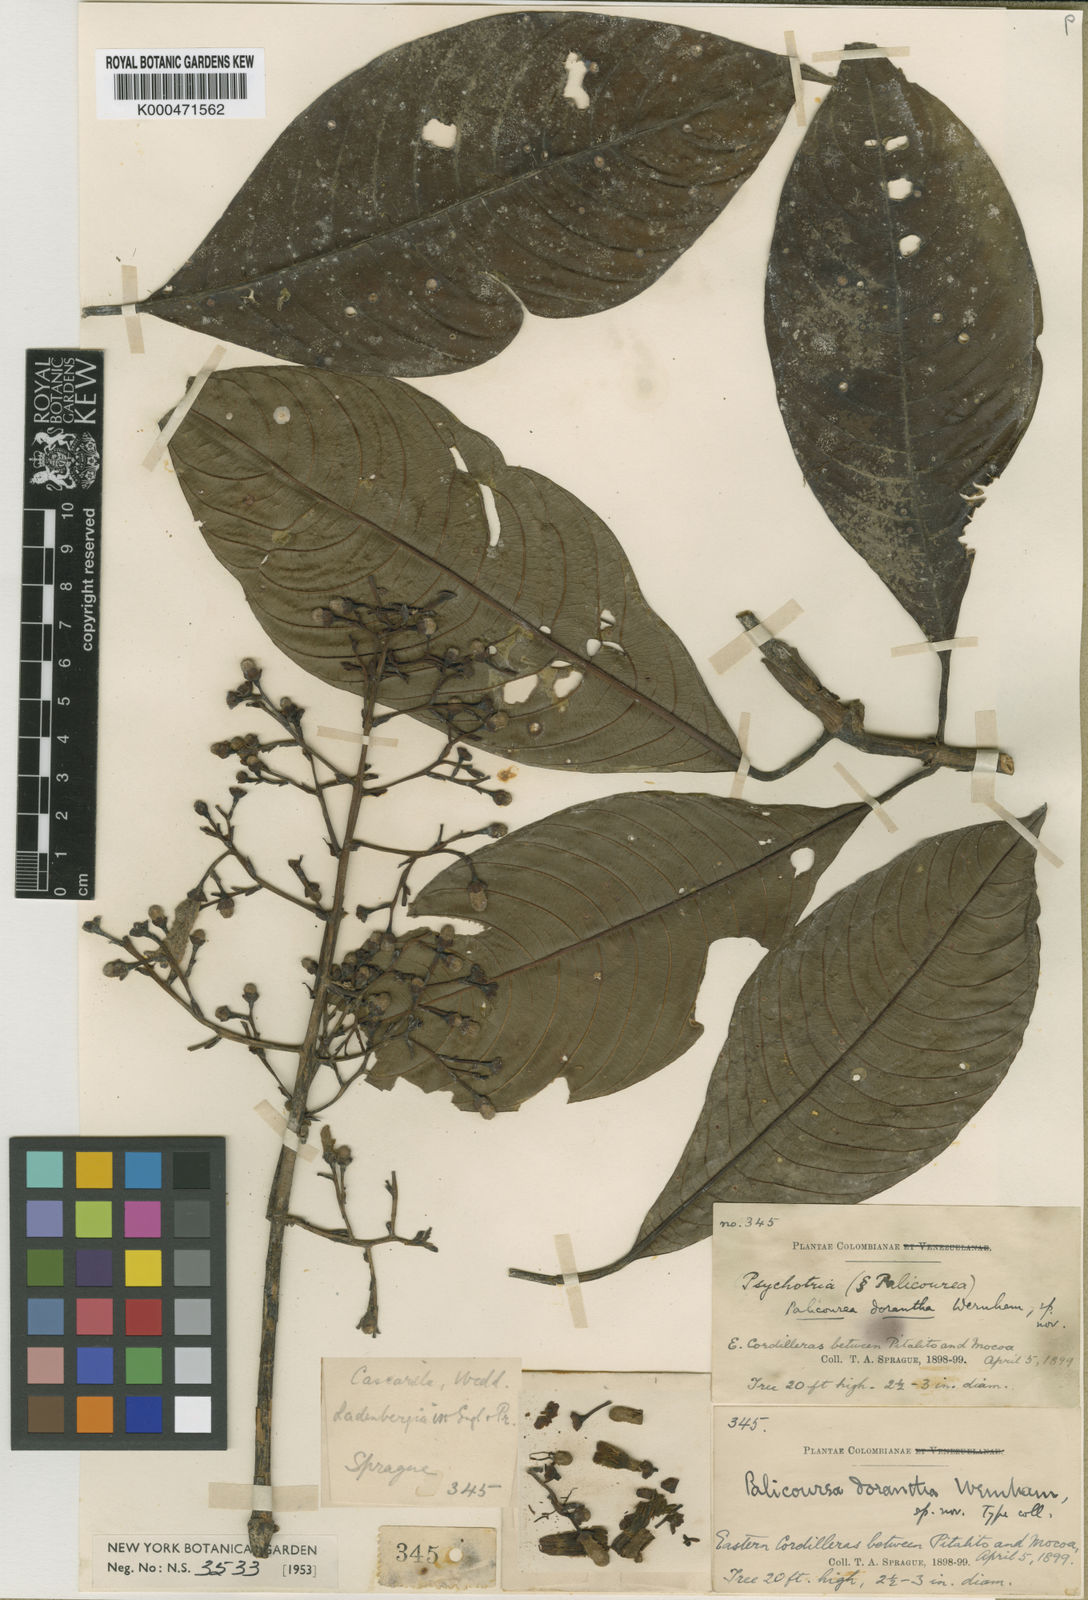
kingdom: Plantae
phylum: Tracheophyta
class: Magnoliopsida
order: Gentianales
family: Rubiaceae
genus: Palicourea
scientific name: Palicourea dorantha
